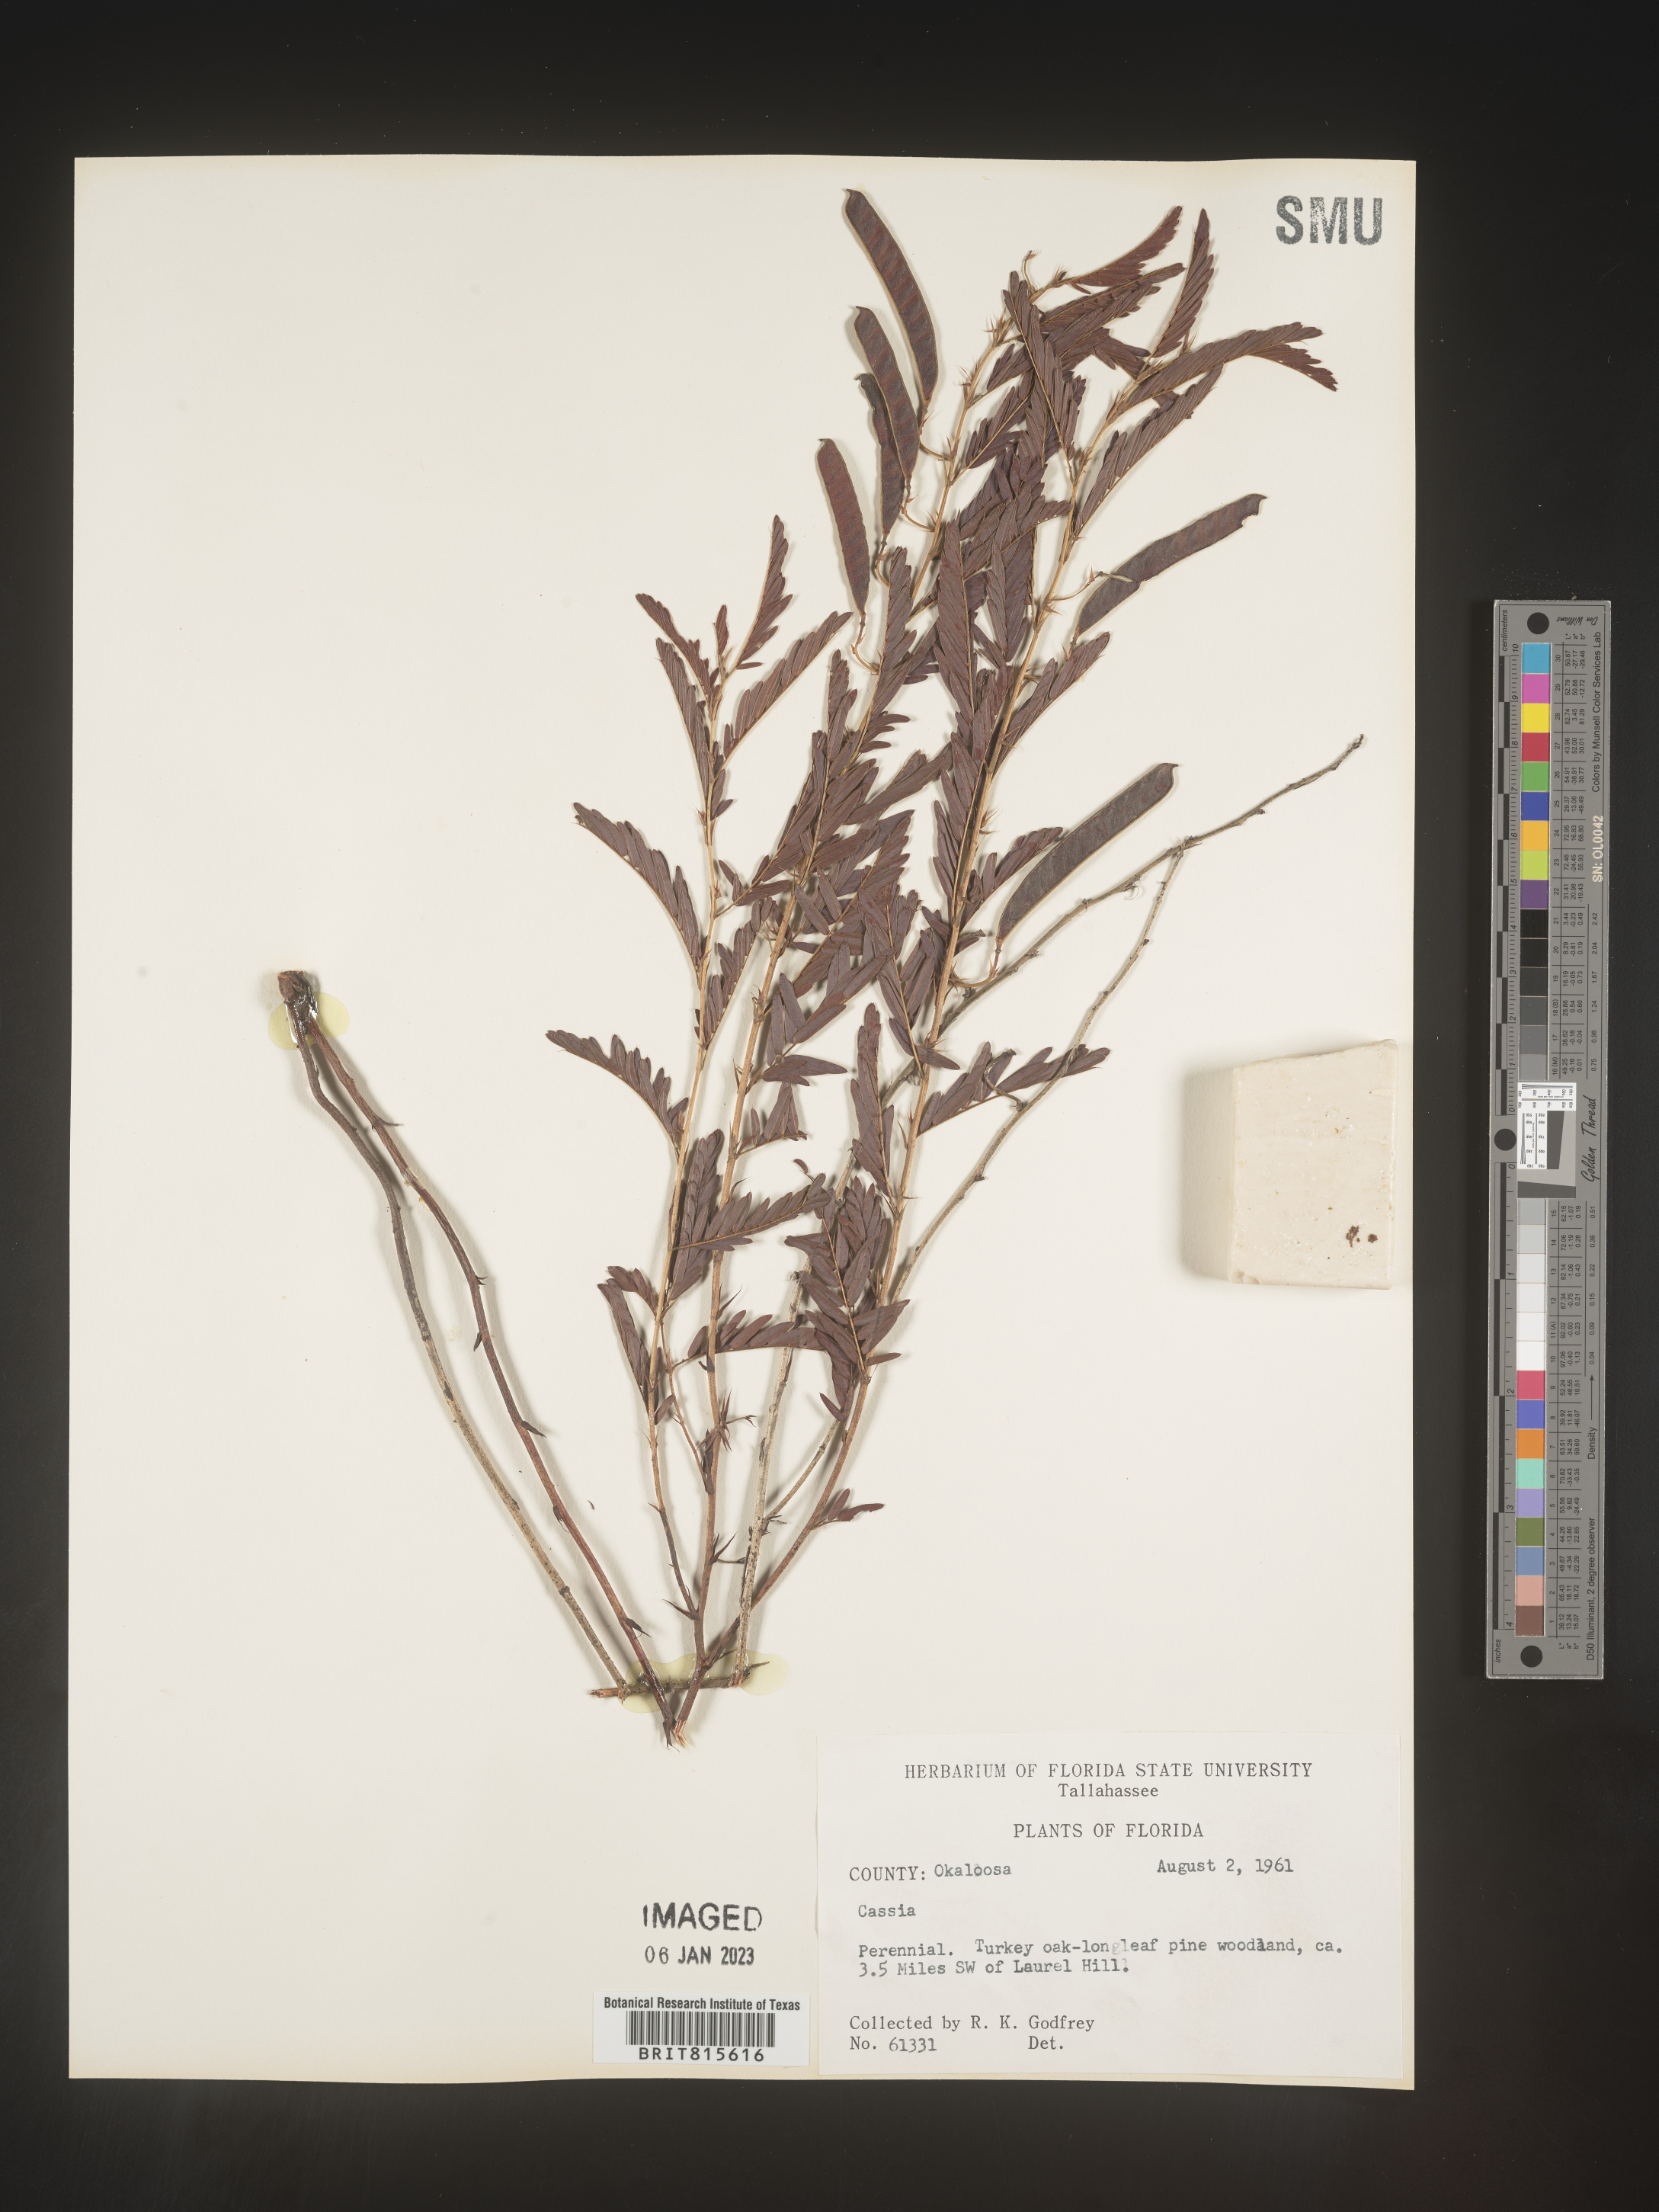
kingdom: Plantae
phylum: Tracheophyta
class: Magnoliopsida
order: Fabales
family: Fabaceae
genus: Cassia
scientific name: Cassia
